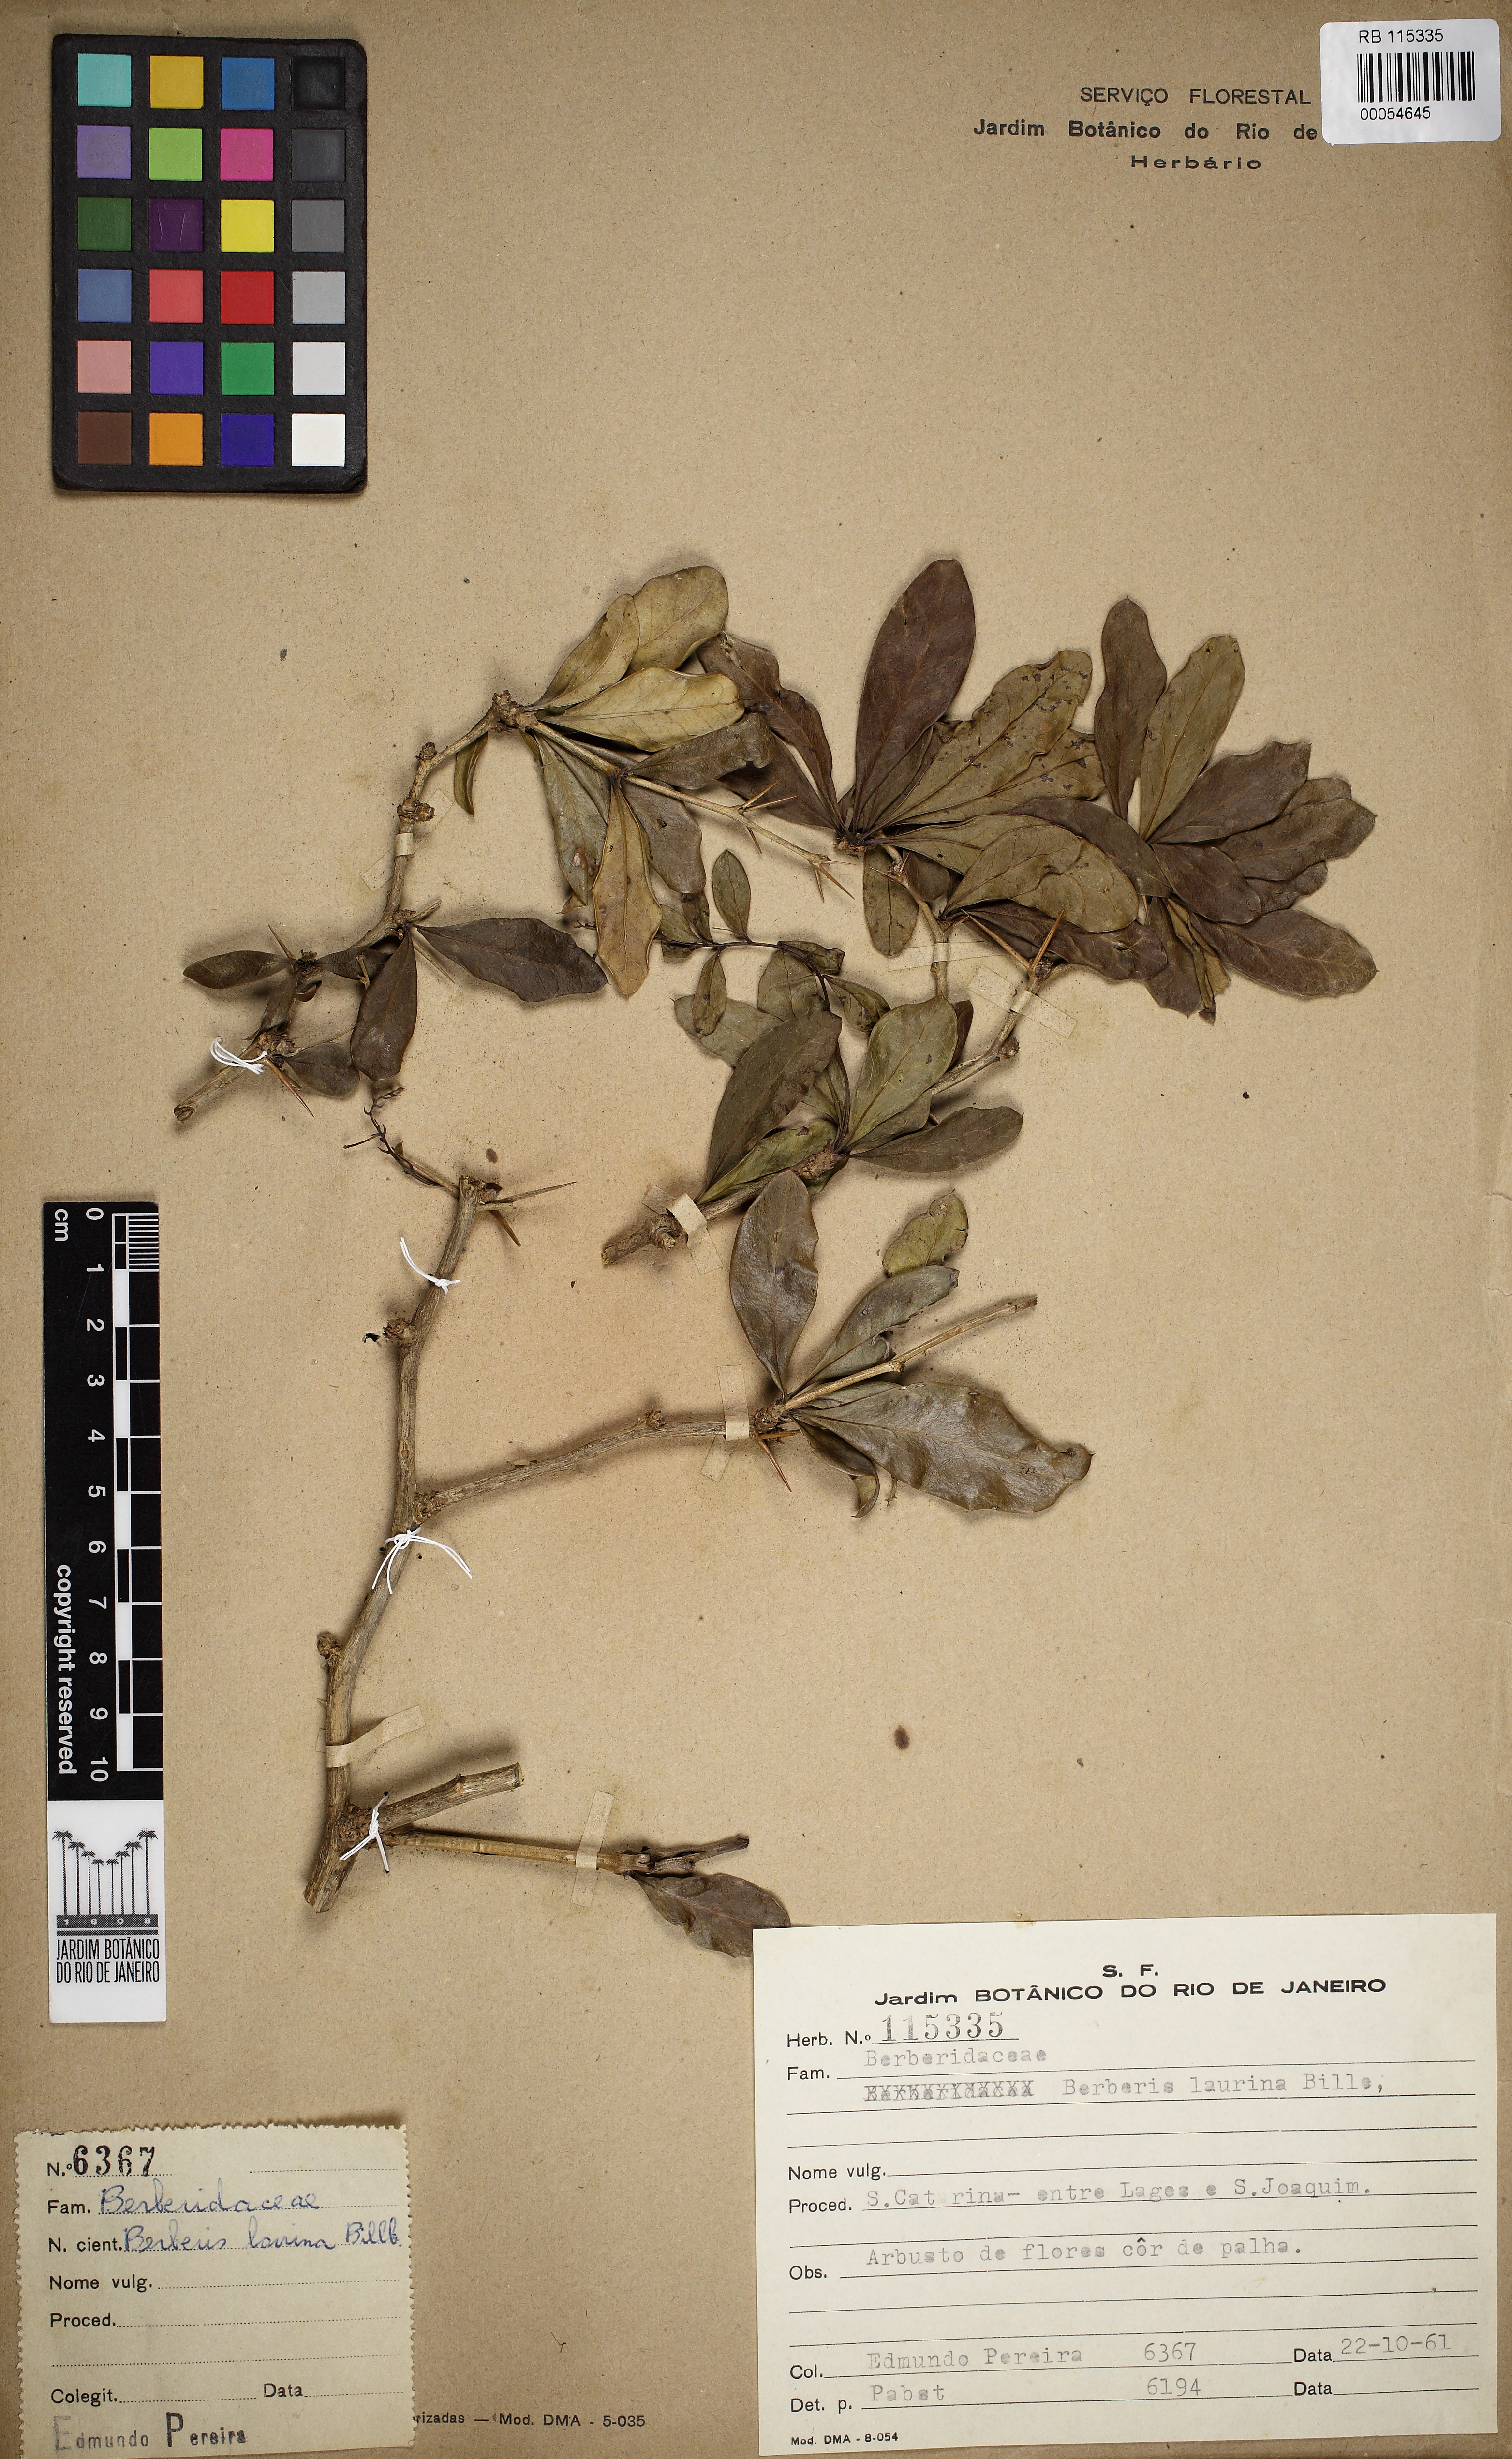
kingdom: Plantae
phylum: Tracheophyta
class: Magnoliopsida
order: Ranunculales
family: Berberidaceae
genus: Berberis
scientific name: Berberis laurina
